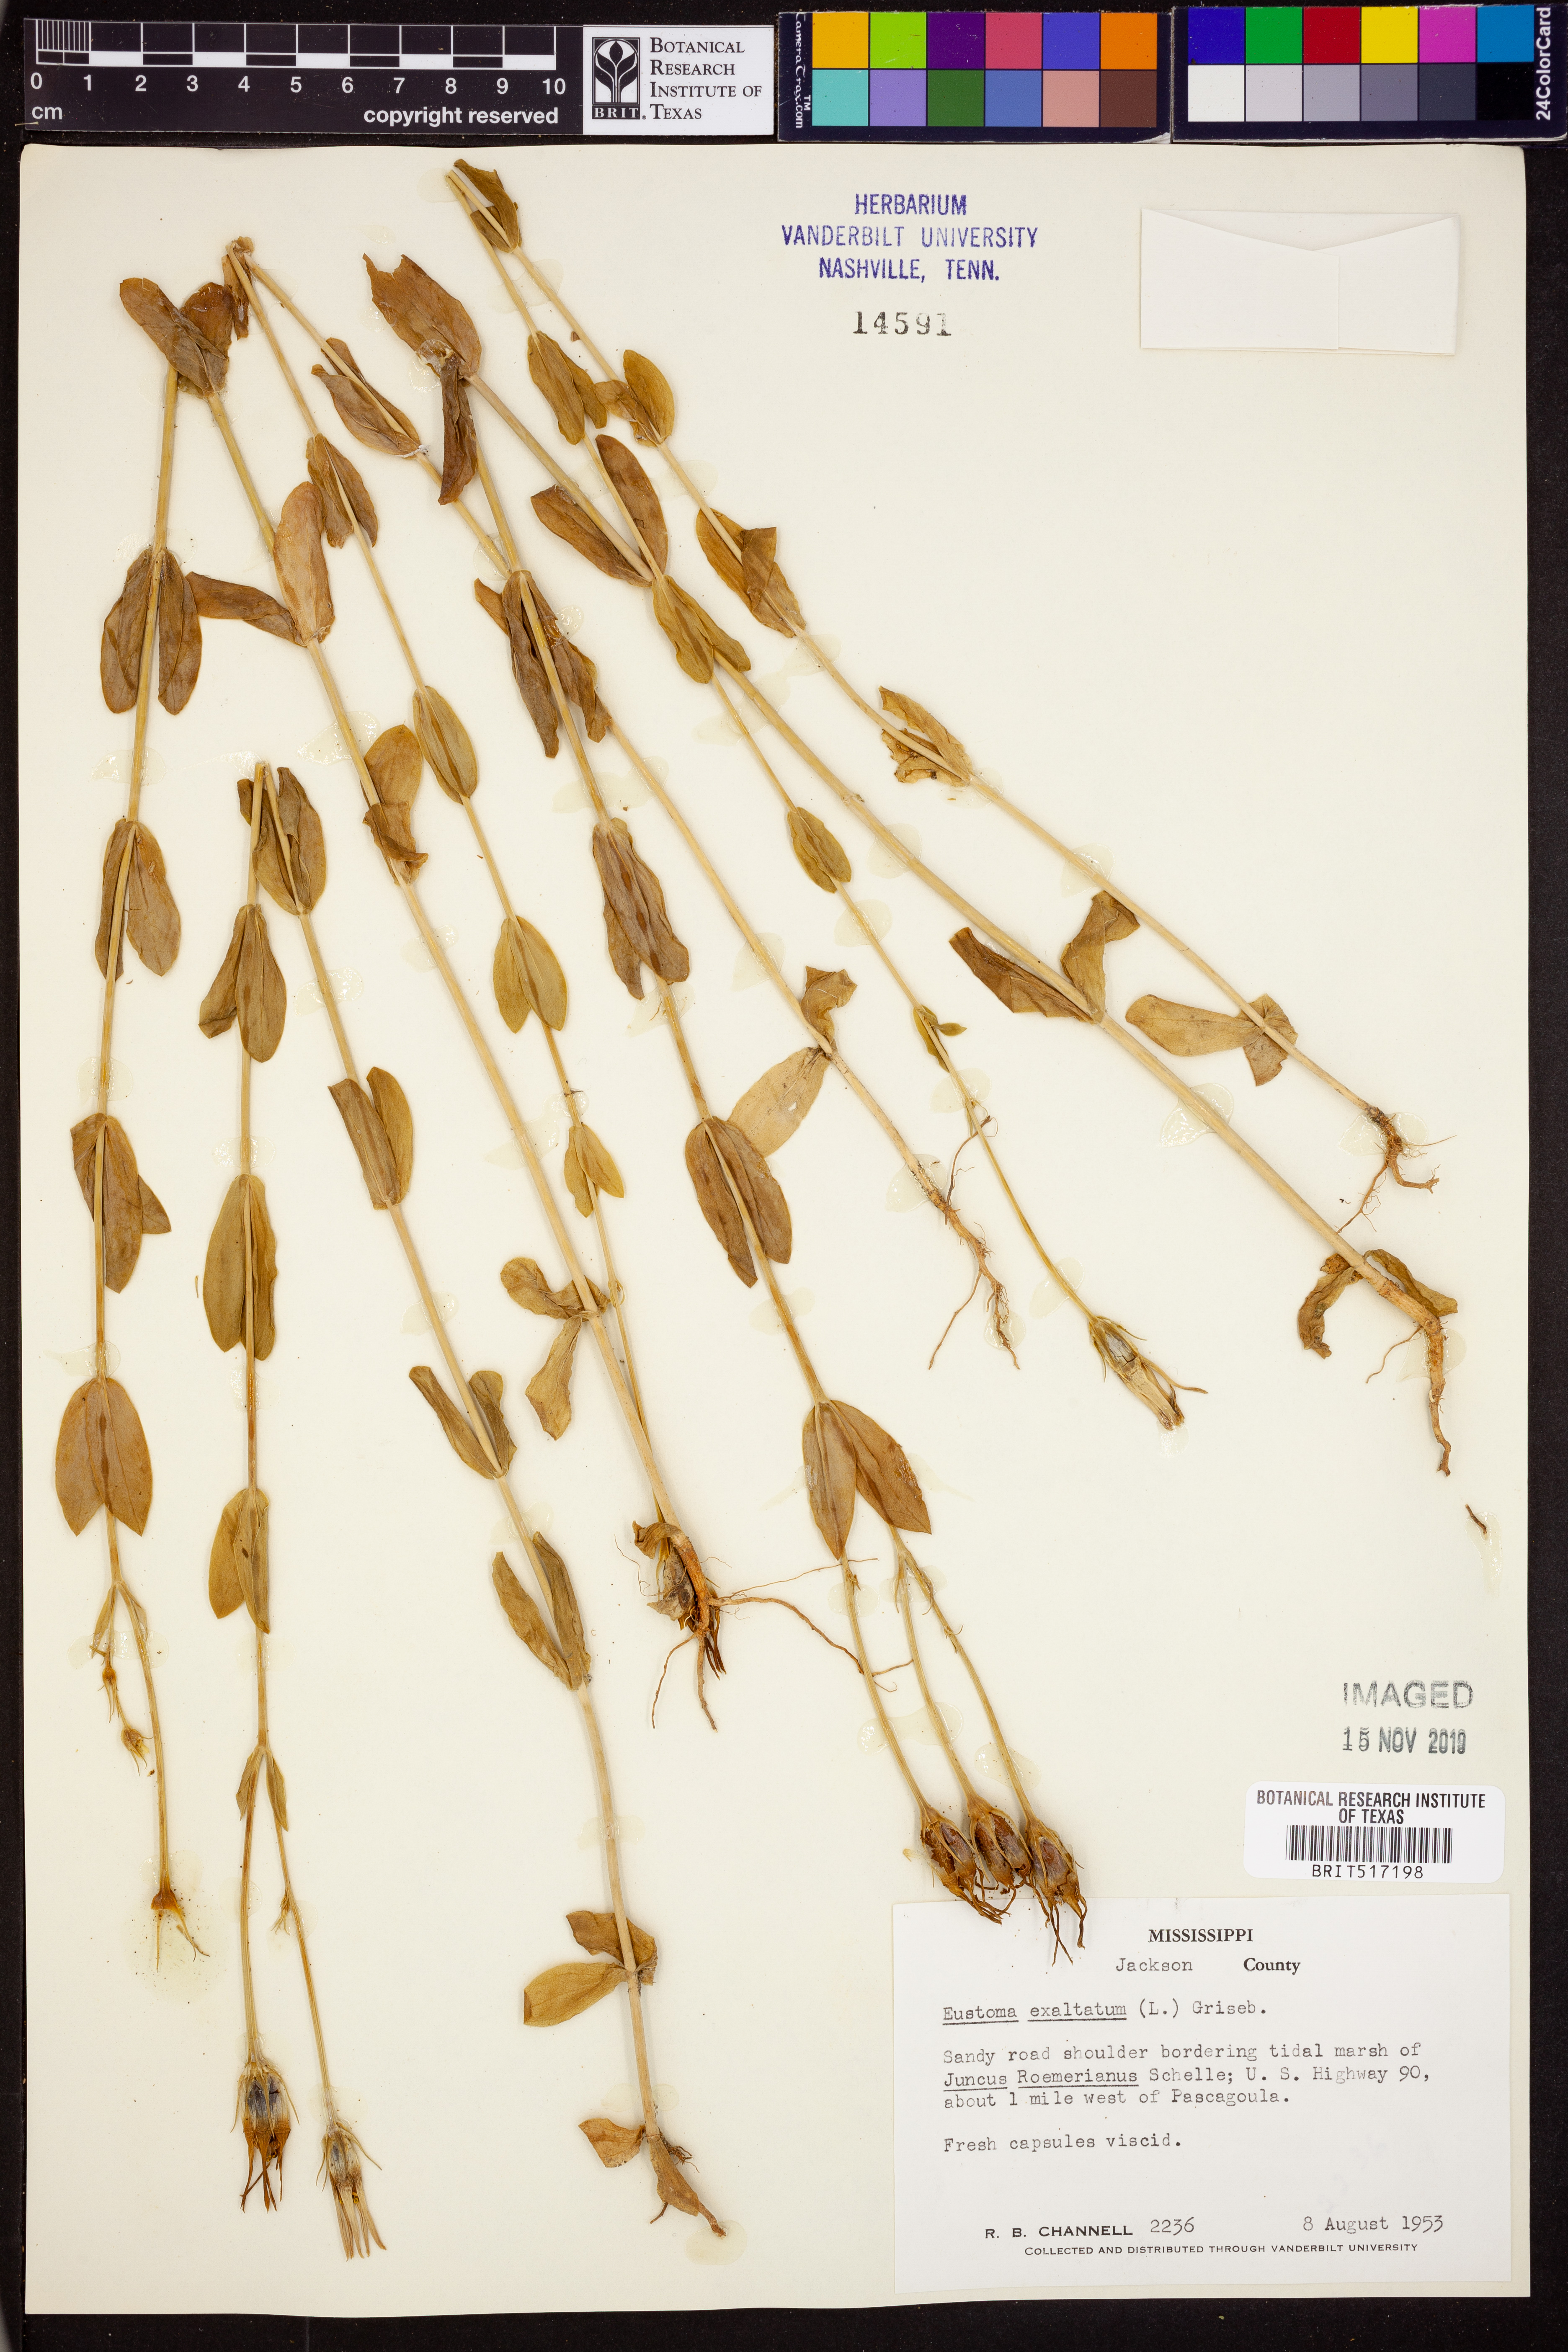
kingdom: Plantae
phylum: Tracheophyta
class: Magnoliopsida
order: Gentianales
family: Gentianaceae
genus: Eustoma
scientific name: Eustoma exaltatum
